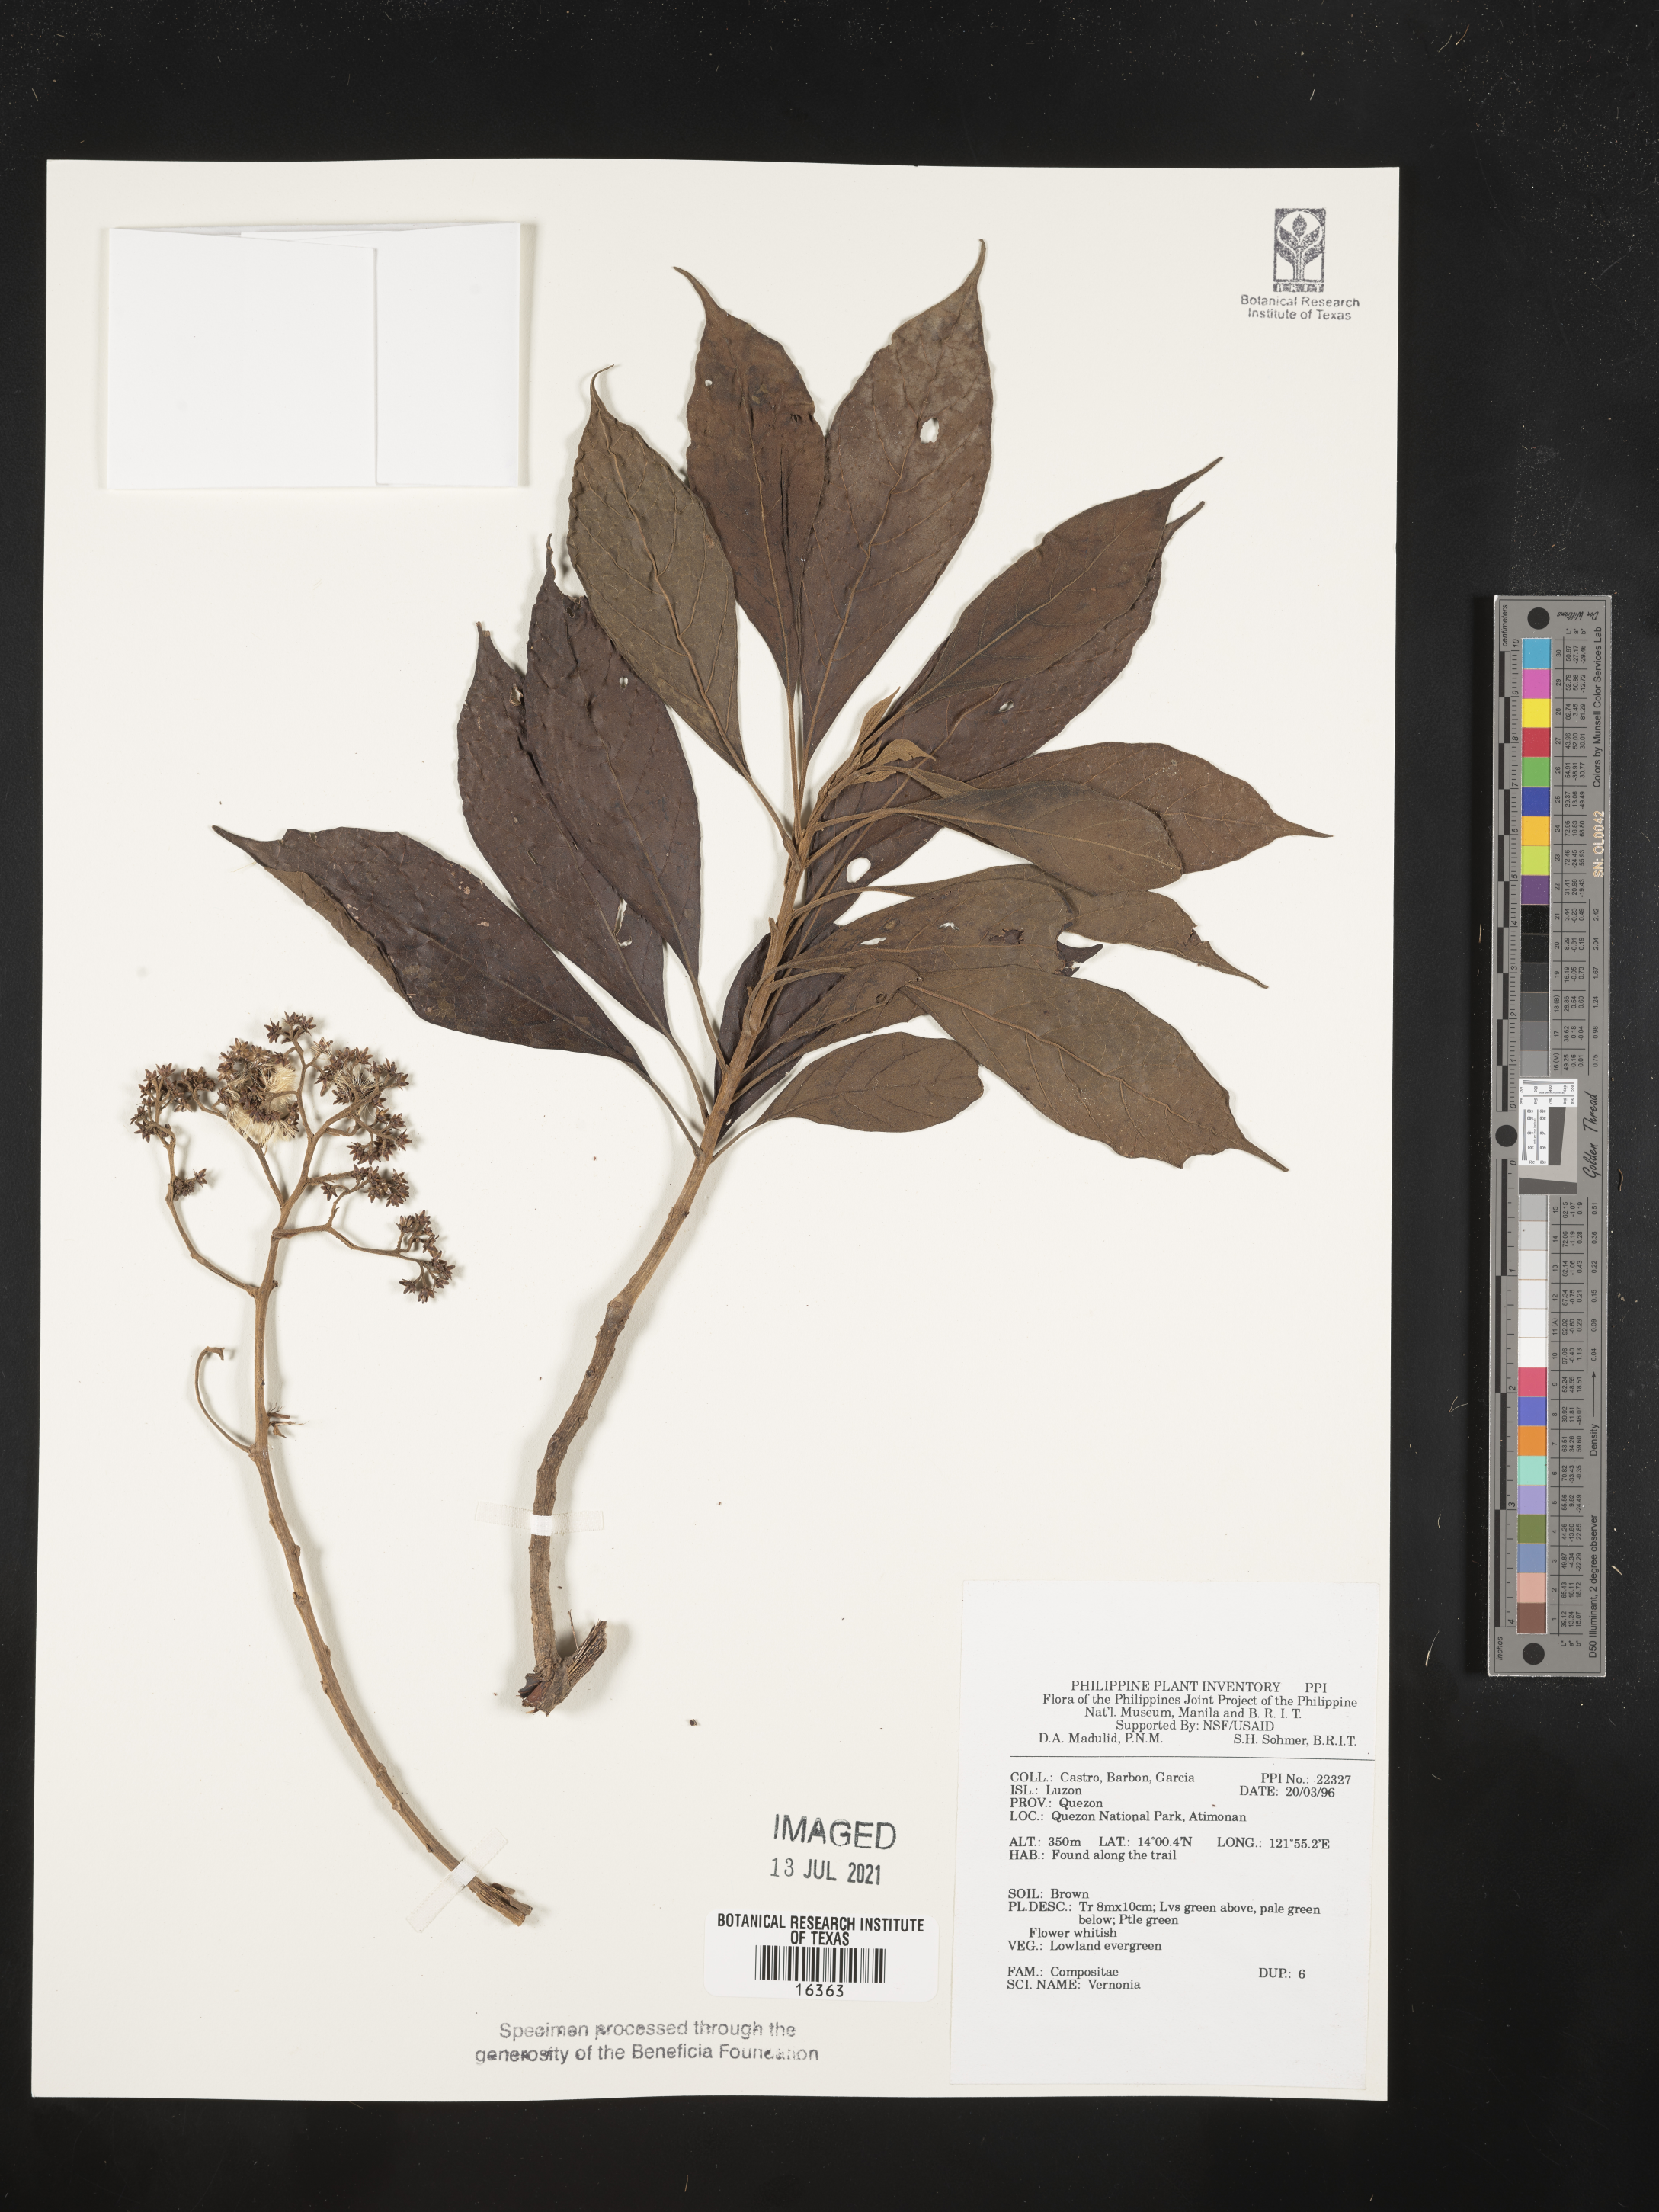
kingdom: Plantae
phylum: Tracheophyta
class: Magnoliopsida
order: Asterales
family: Asteraceae
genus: Vernonia
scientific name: Vernonia
